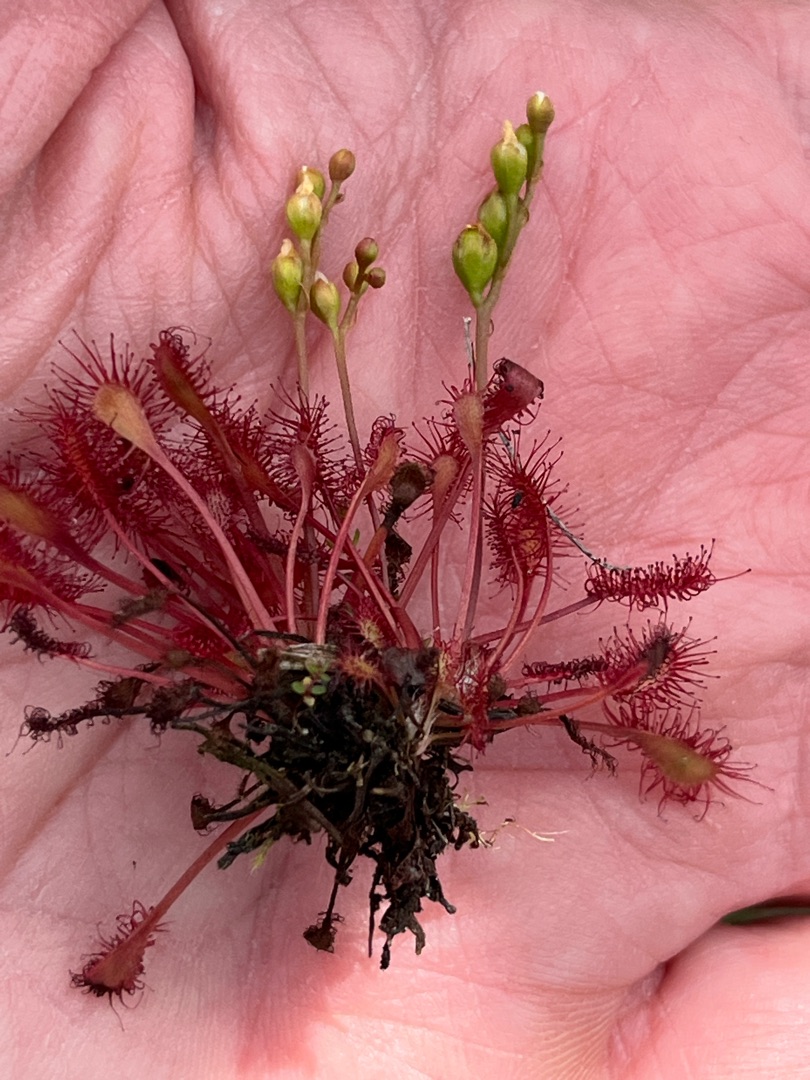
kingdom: Plantae
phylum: Tracheophyta
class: Magnoliopsida
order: Caryophyllales
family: Droseraceae
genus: Drosera
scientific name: Drosera intermedia
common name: Liden soldug
